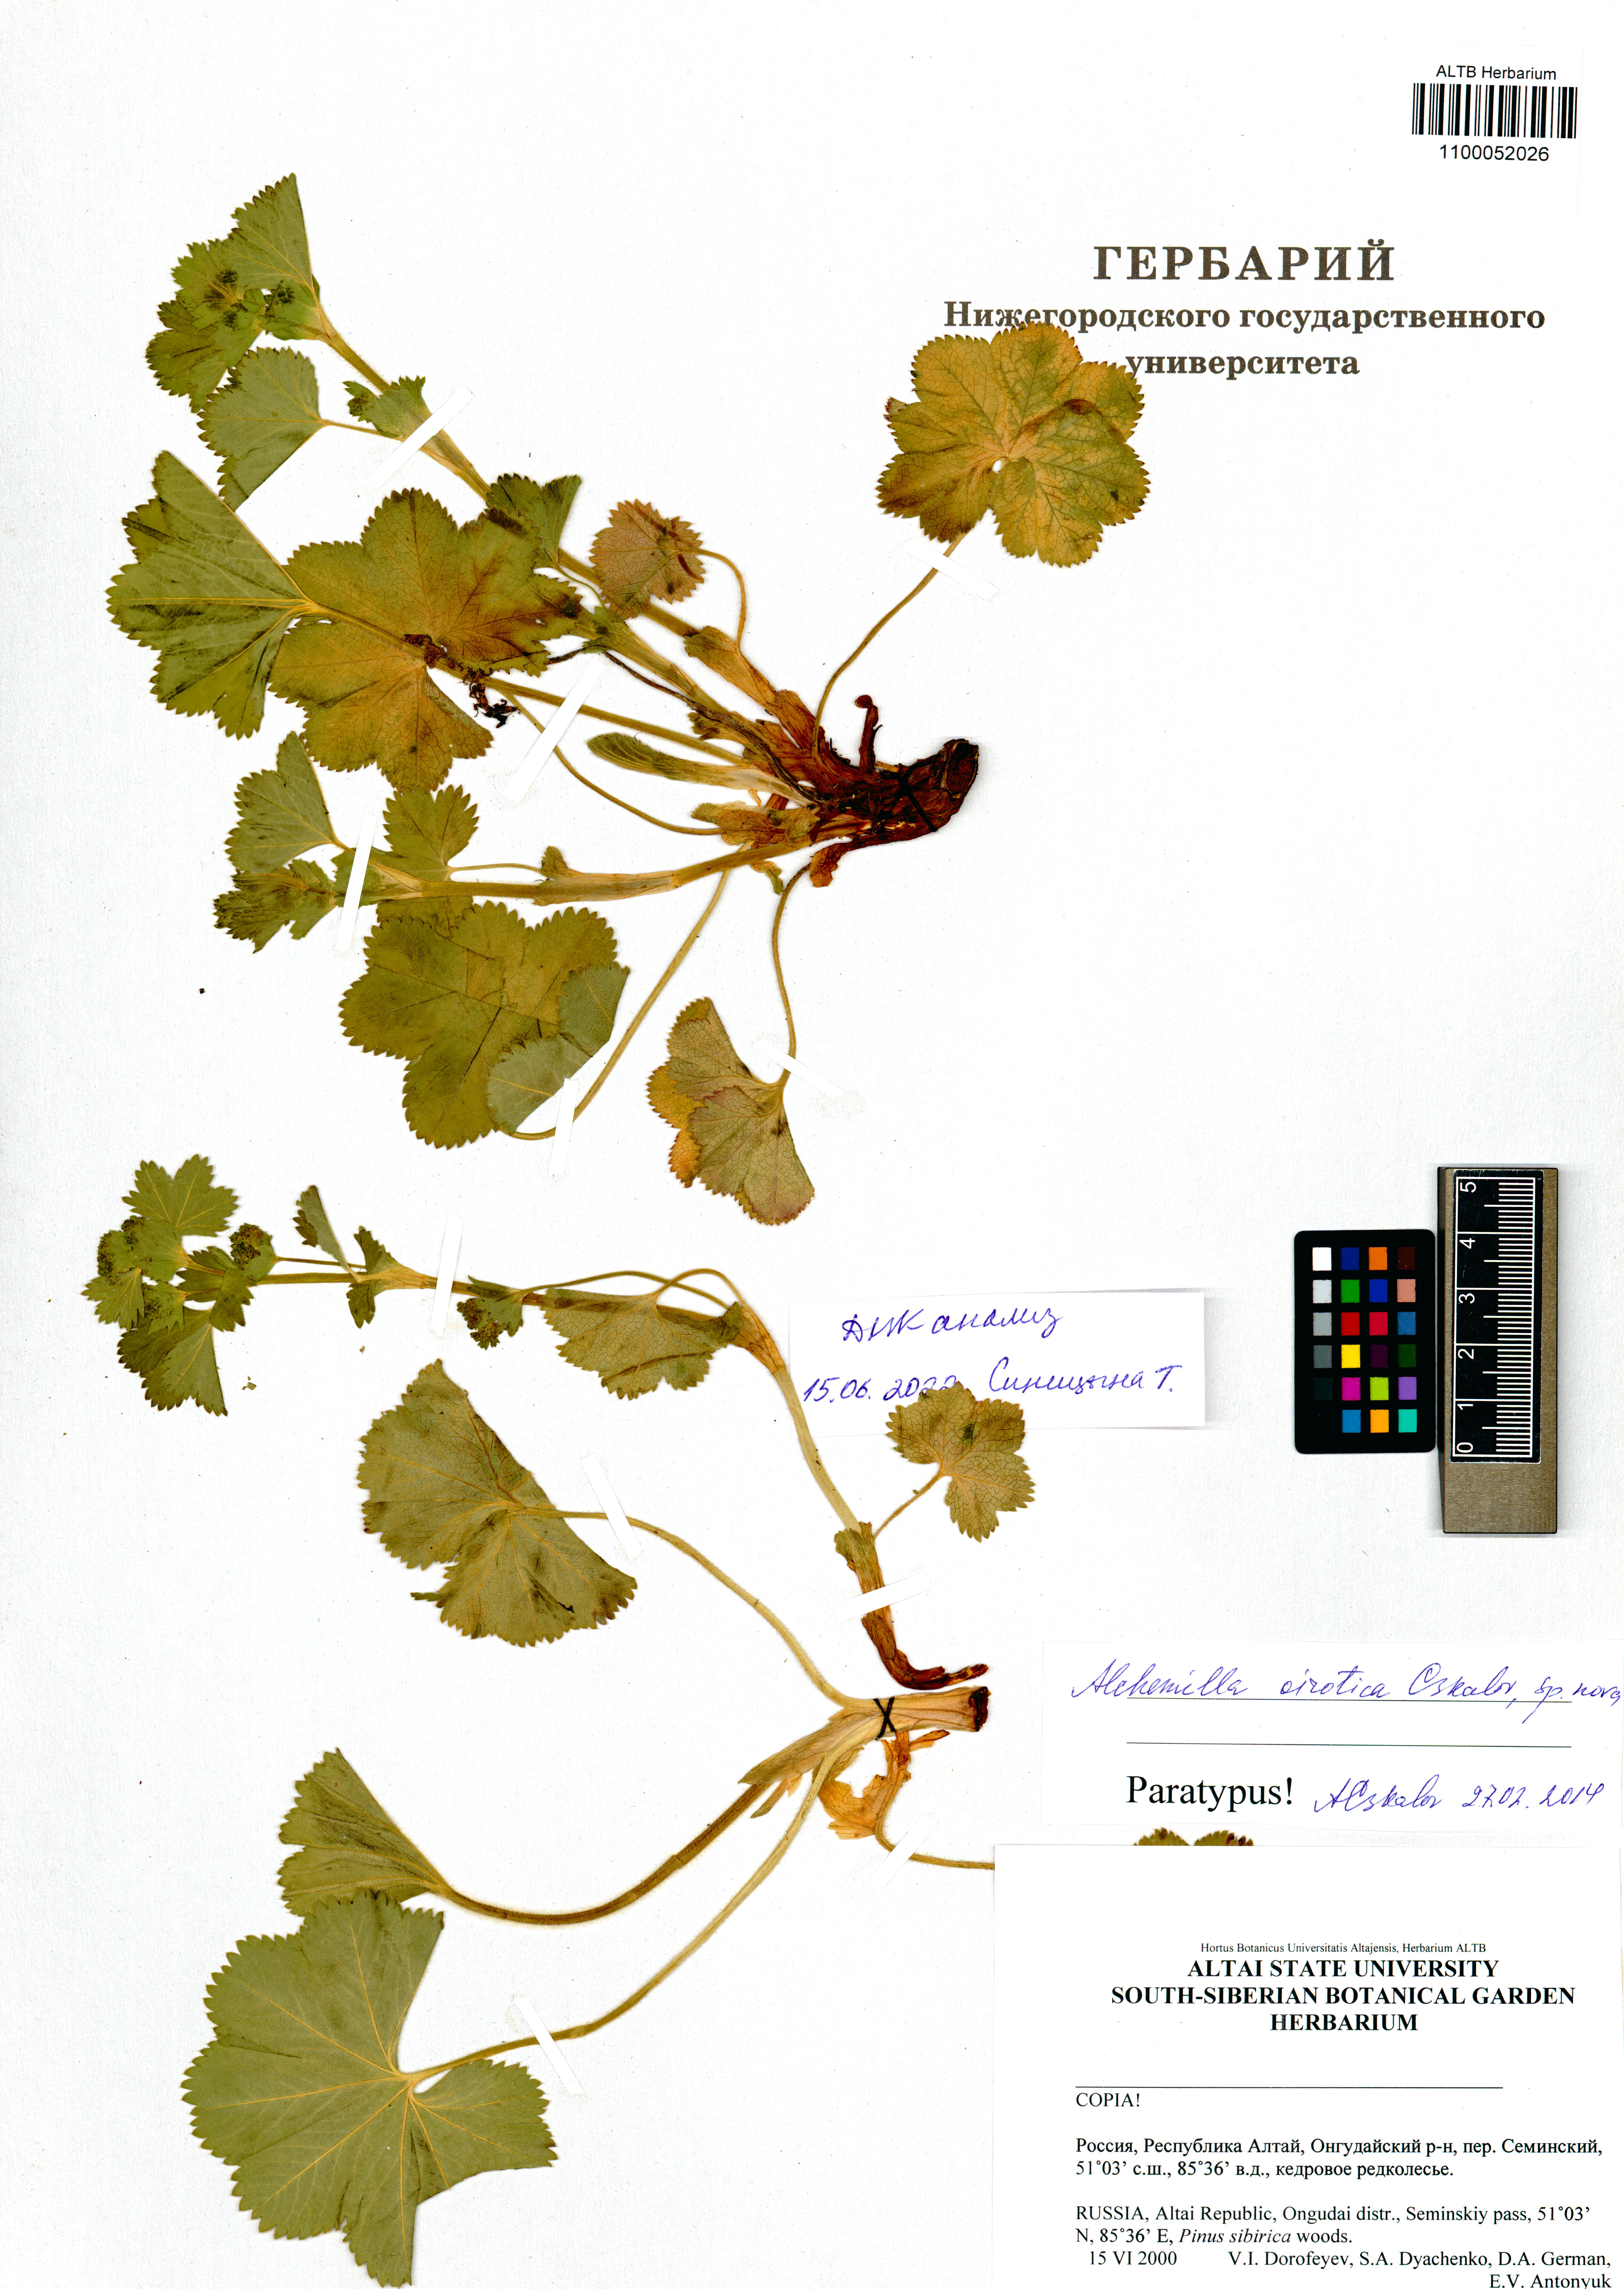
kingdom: Plantae
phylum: Tracheophyta
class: Magnoliopsida
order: Rosales
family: Rosaceae
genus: Alchemilla
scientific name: Alchemilla oirotica
